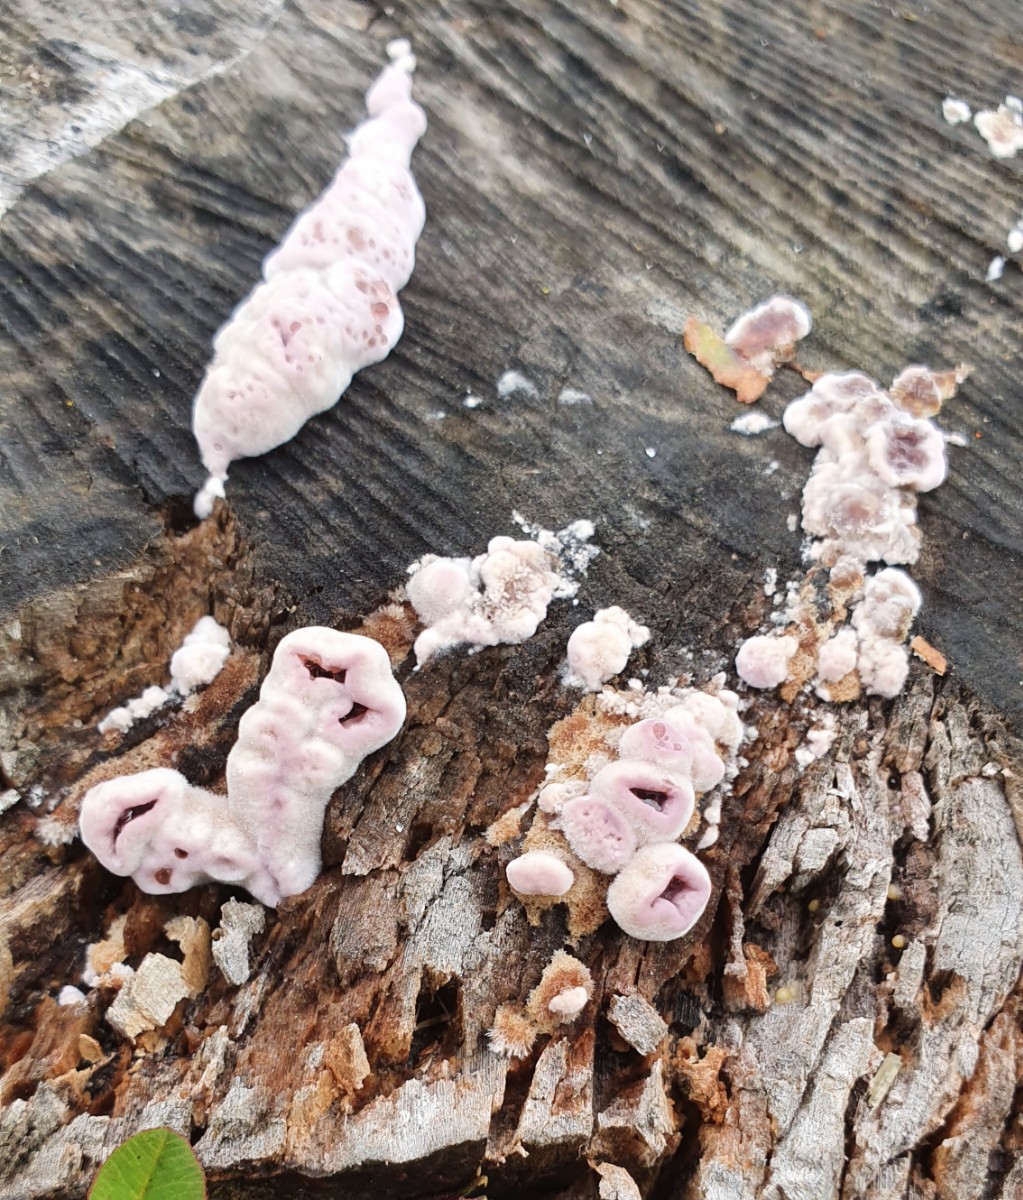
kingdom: Fungi
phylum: Basidiomycota
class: Agaricomycetes
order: Agaricales
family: Cyphellaceae
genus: Chondrostereum
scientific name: Chondrostereum purpureum
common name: purpurlædersvamp
